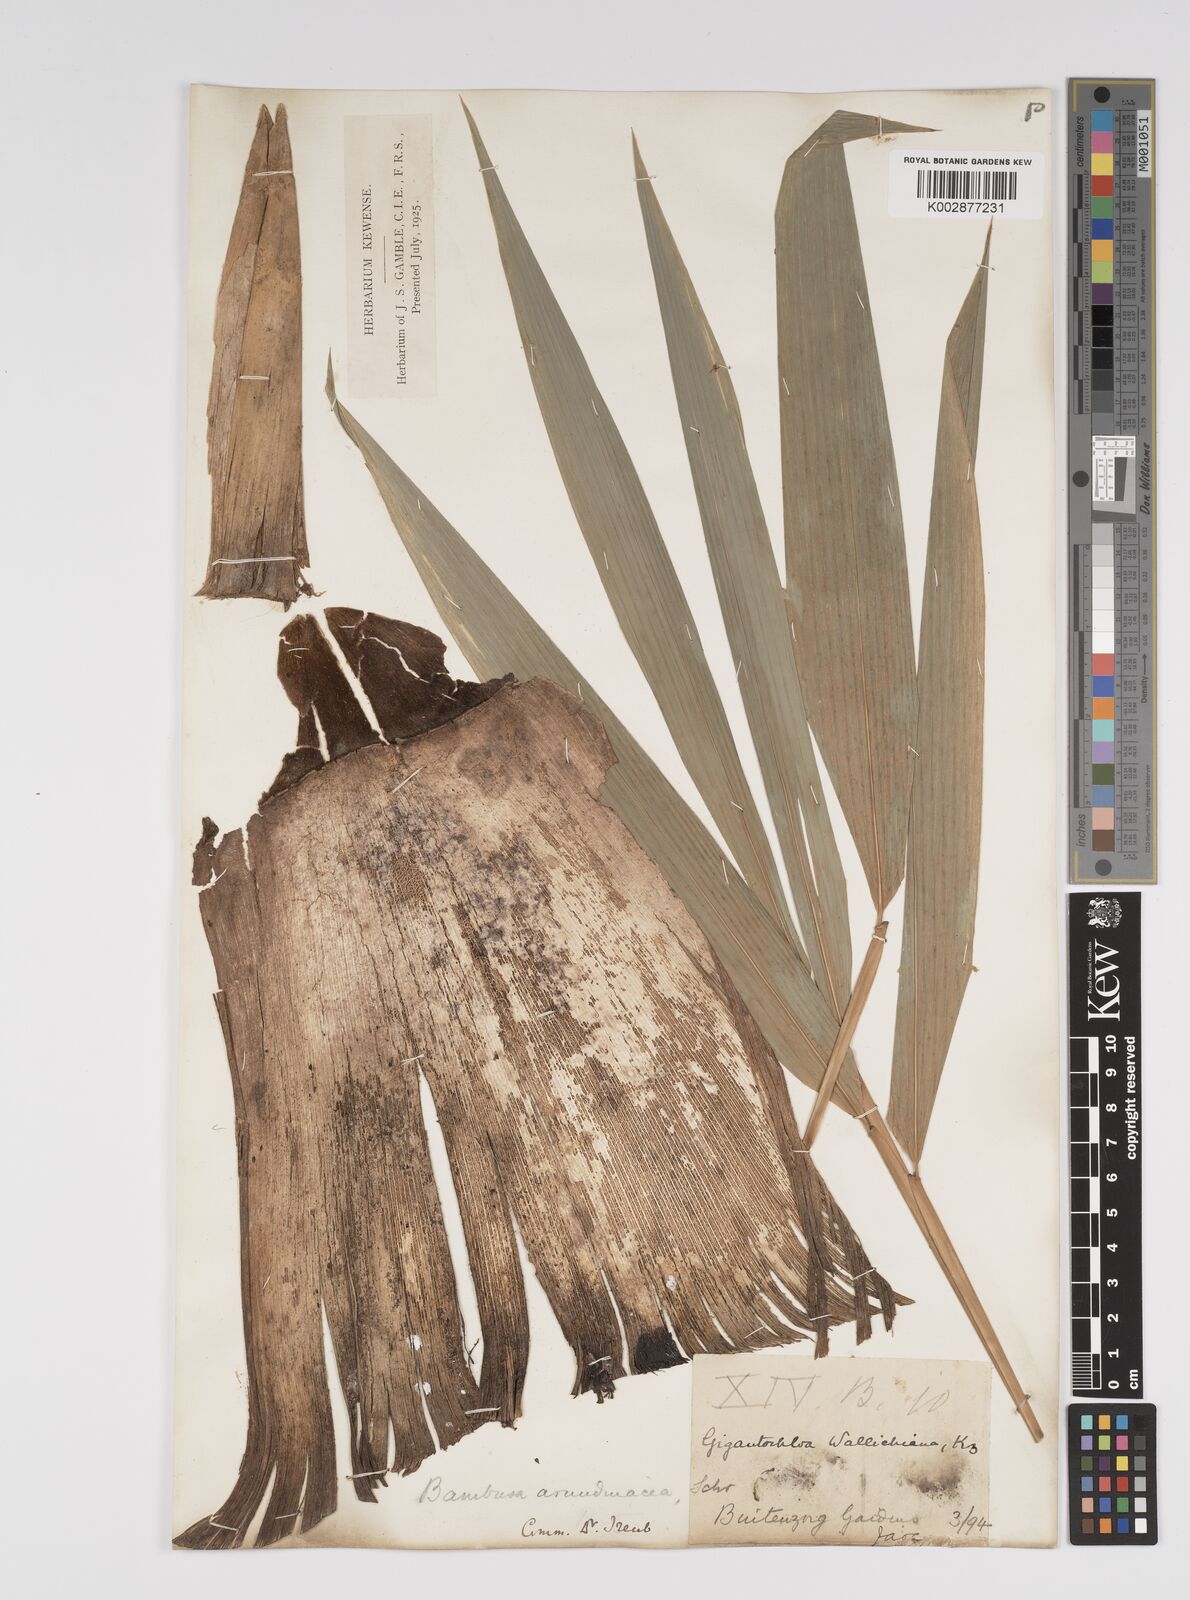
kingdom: Plantae
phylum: Tracheophyta
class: Liliopsida
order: Poales
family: Poaceae
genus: Bambusa
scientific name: Bambusa bambos
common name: Indian thorny bamboo
